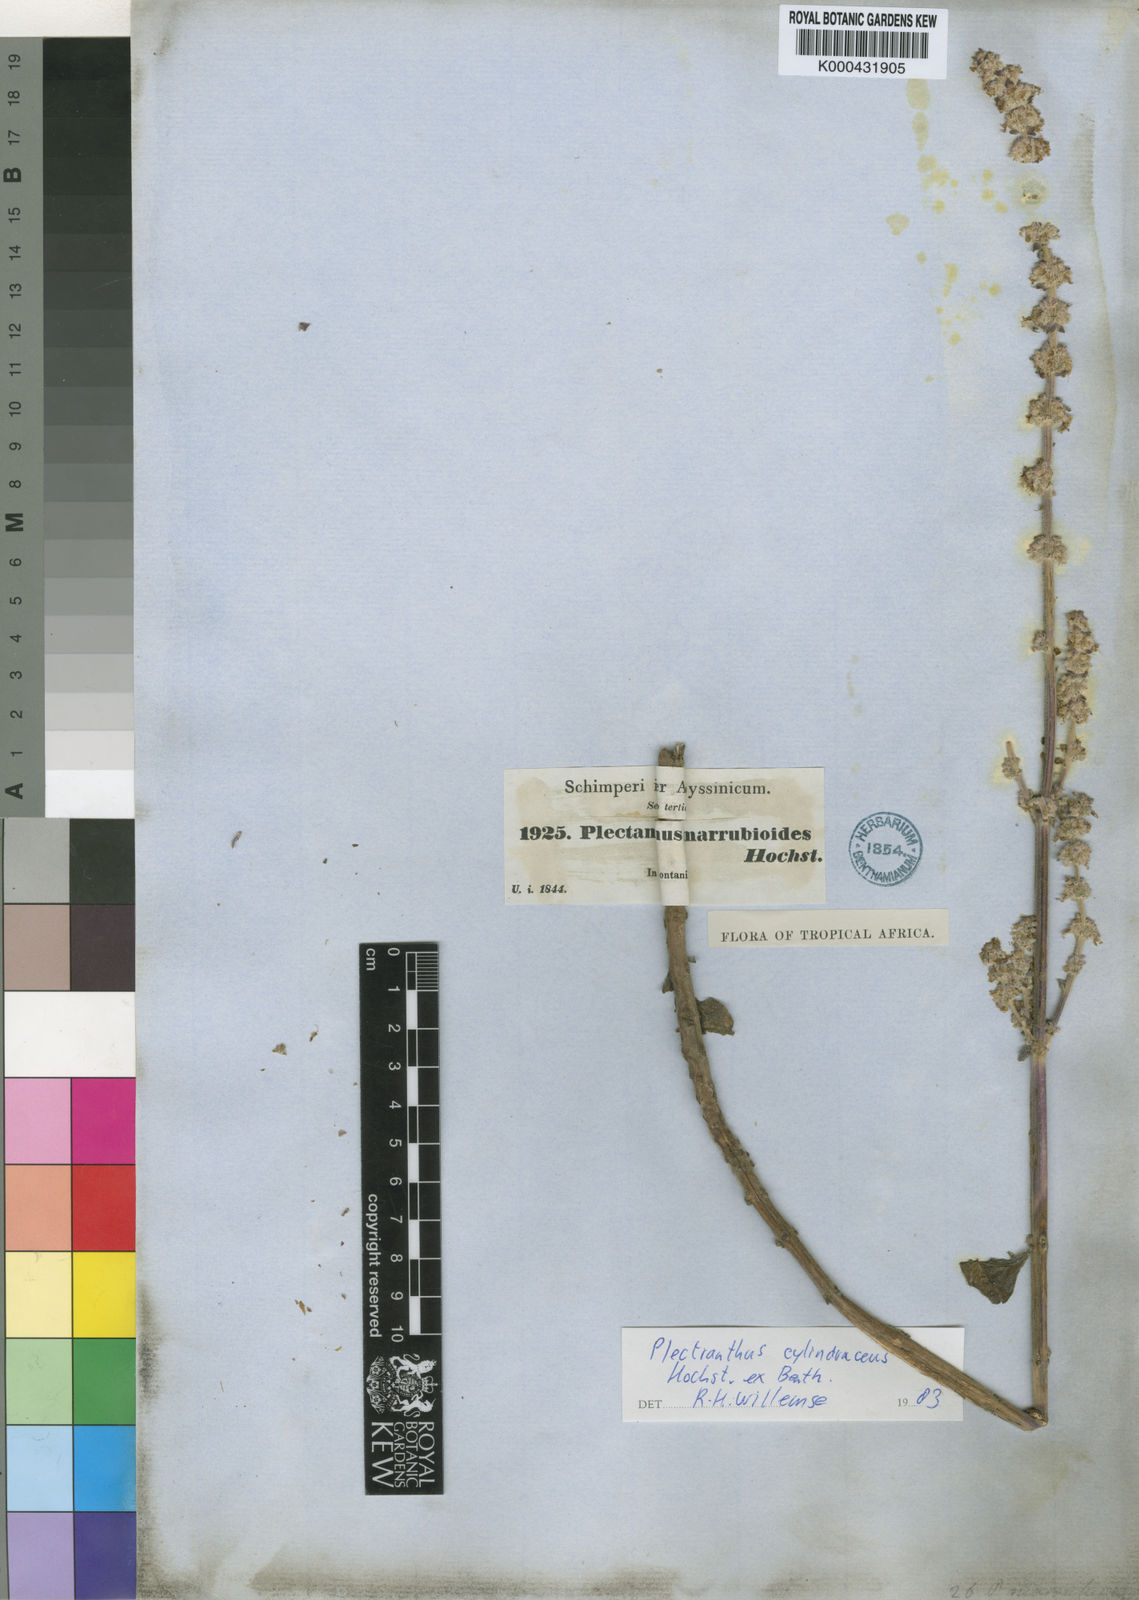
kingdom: Plantae
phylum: Tracheophyta
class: Magnoliopsida
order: Lamiales
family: Lamiaceae
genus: Coleus
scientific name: Coleus cylindraceus
